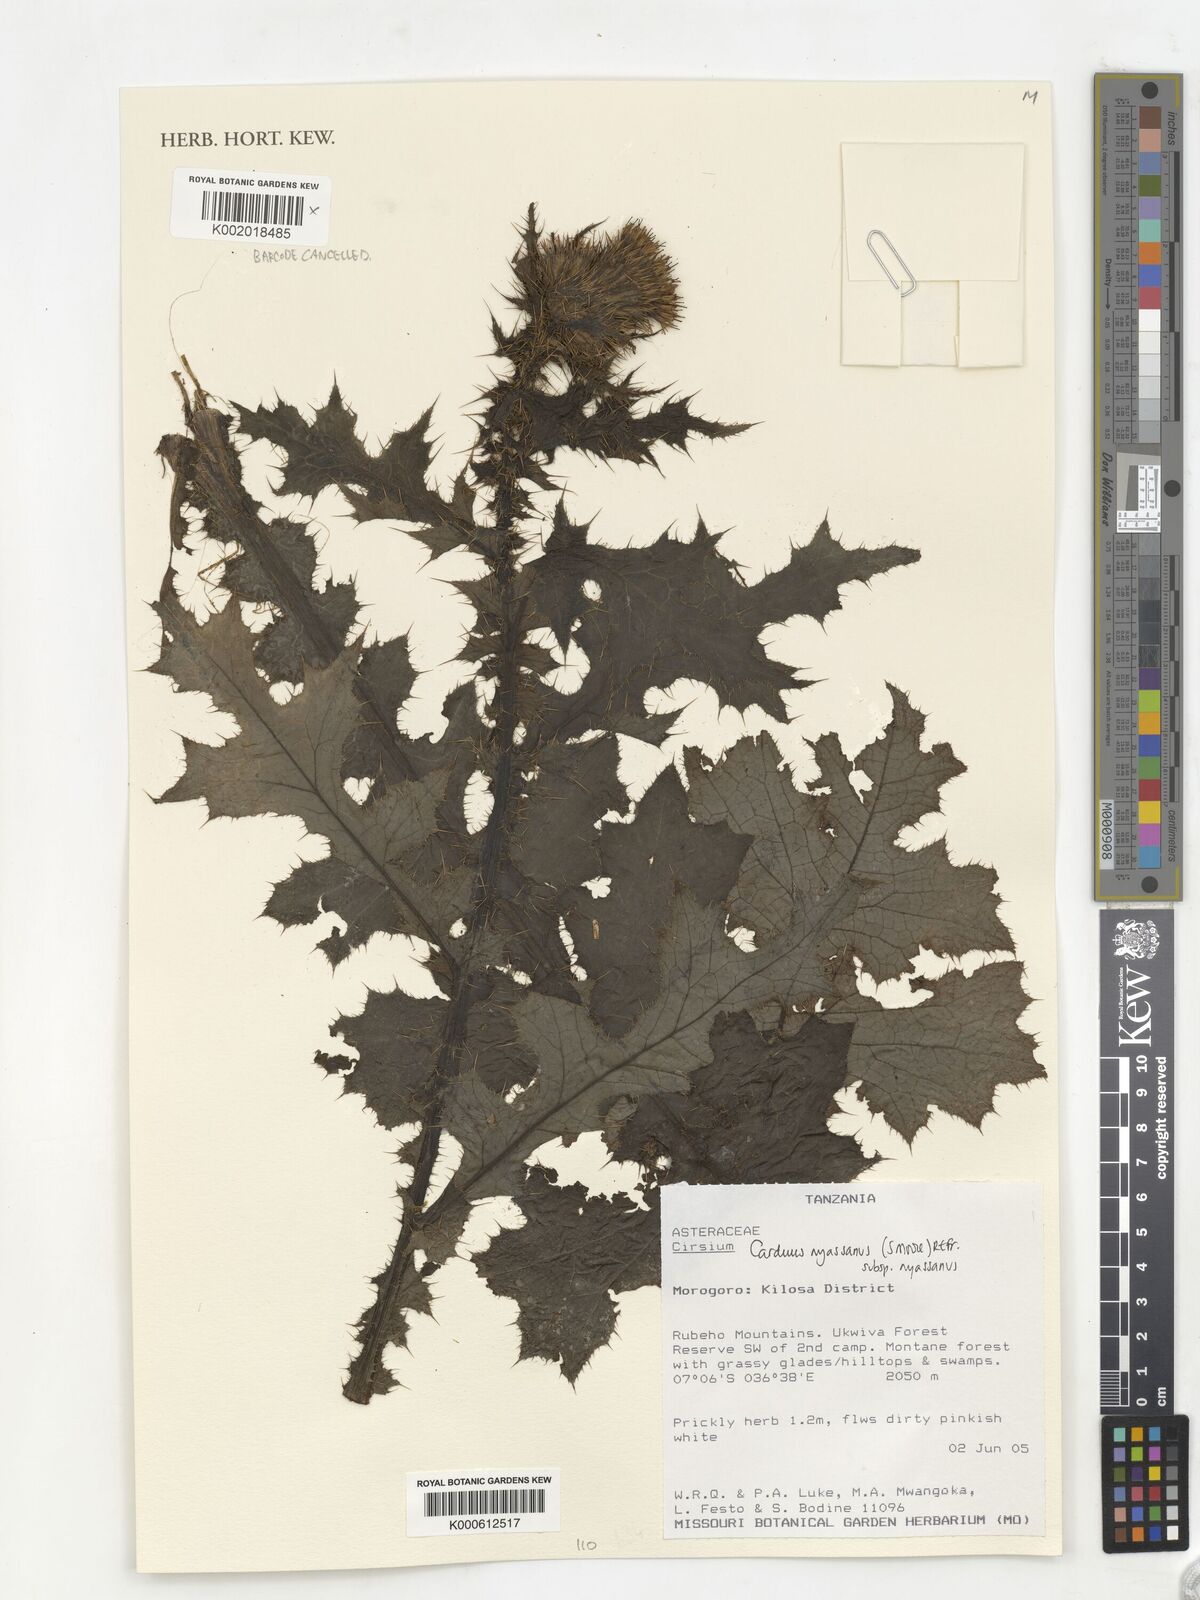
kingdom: Plantae
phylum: Tracheophyta
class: Magnoliopsida
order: Asterales
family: Asteraceae
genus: Cirsium
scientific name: Cirsium
